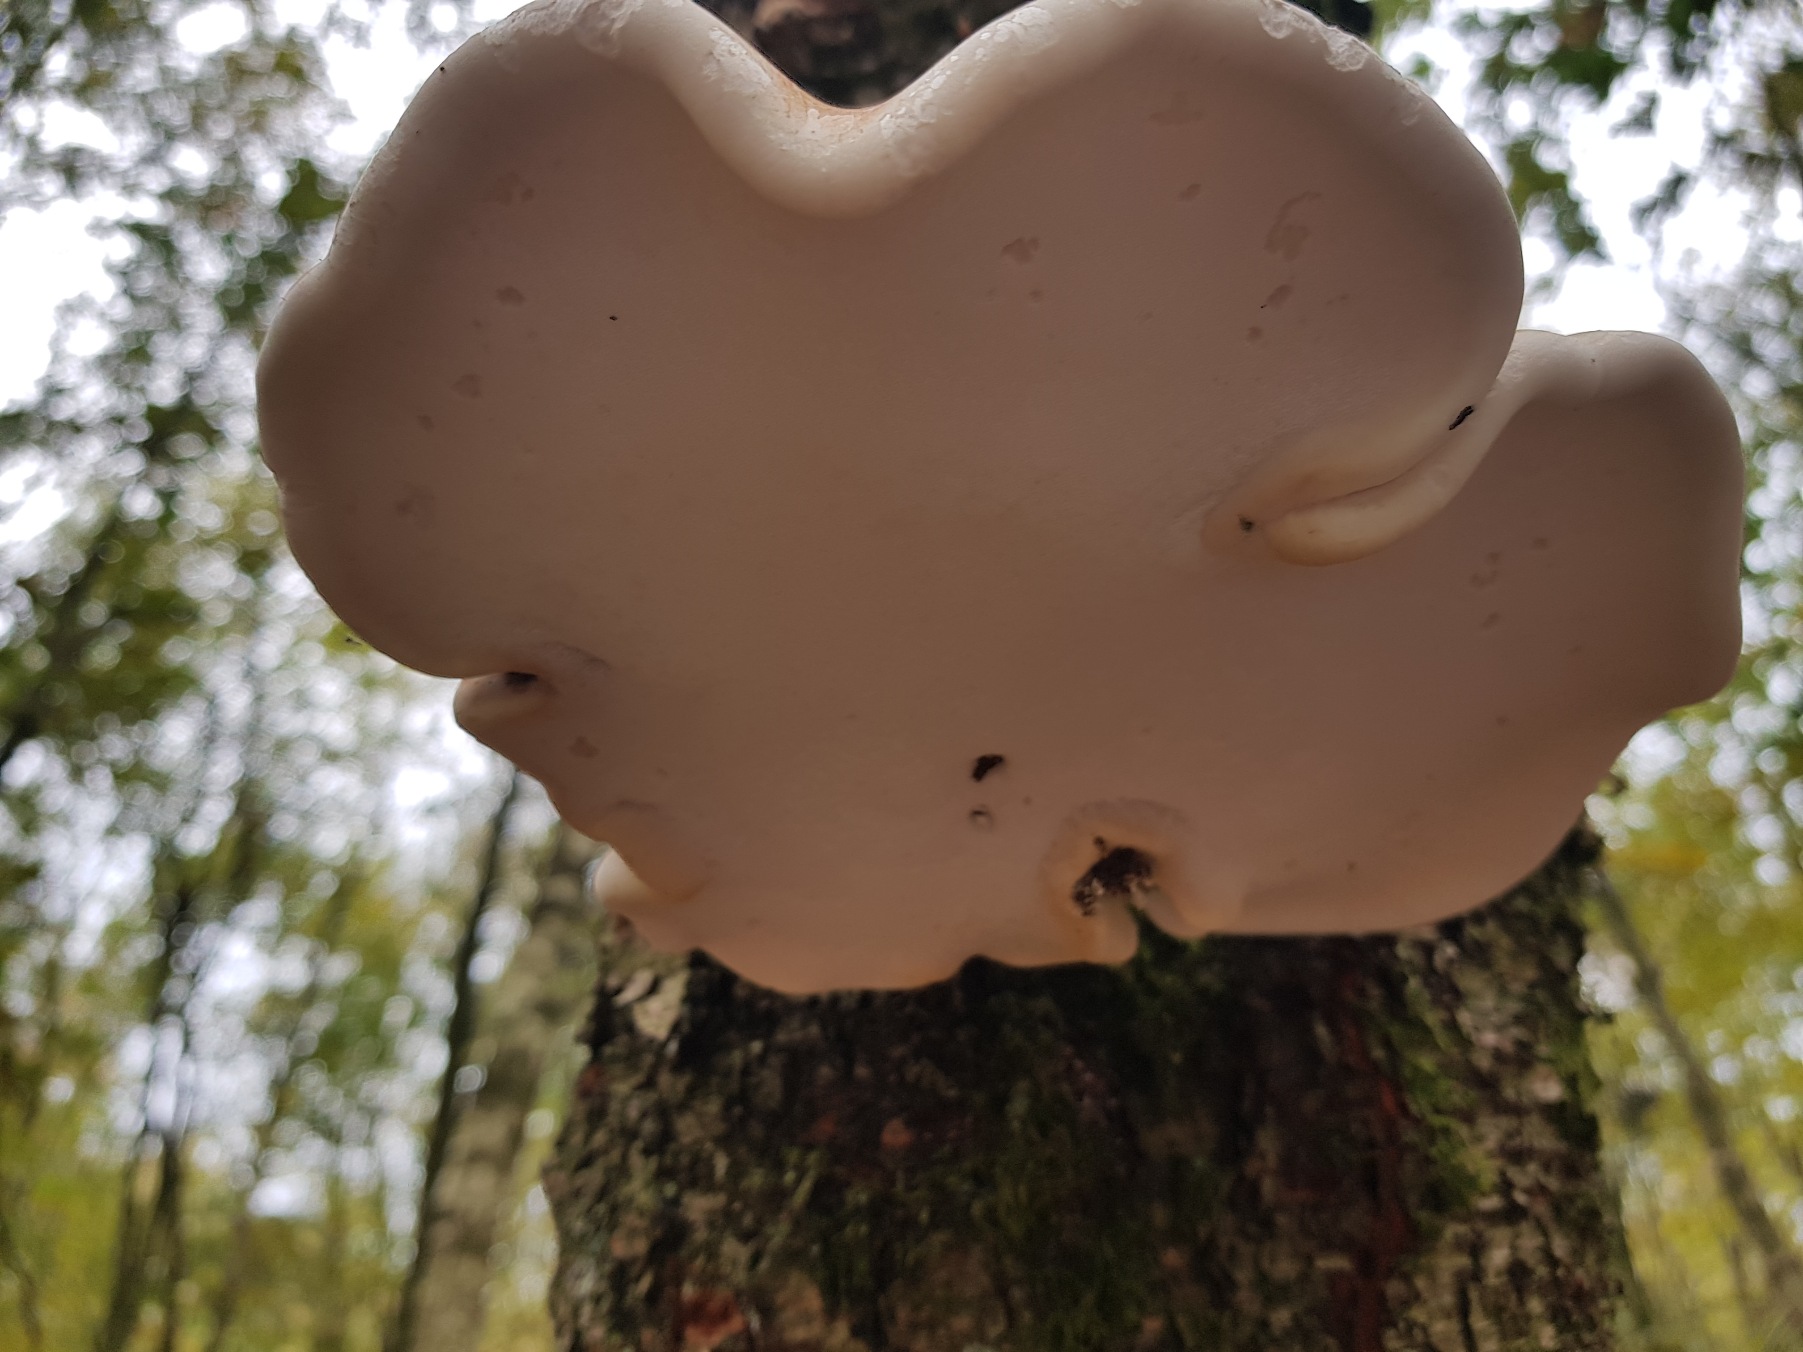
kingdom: Fungi
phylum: Basidiomycota
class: Agaricomycetes
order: Polyporales
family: Fomitopsidaceae
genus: Fomitopsis
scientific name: Fomitopsis betulina
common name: Birkeporesvamp
